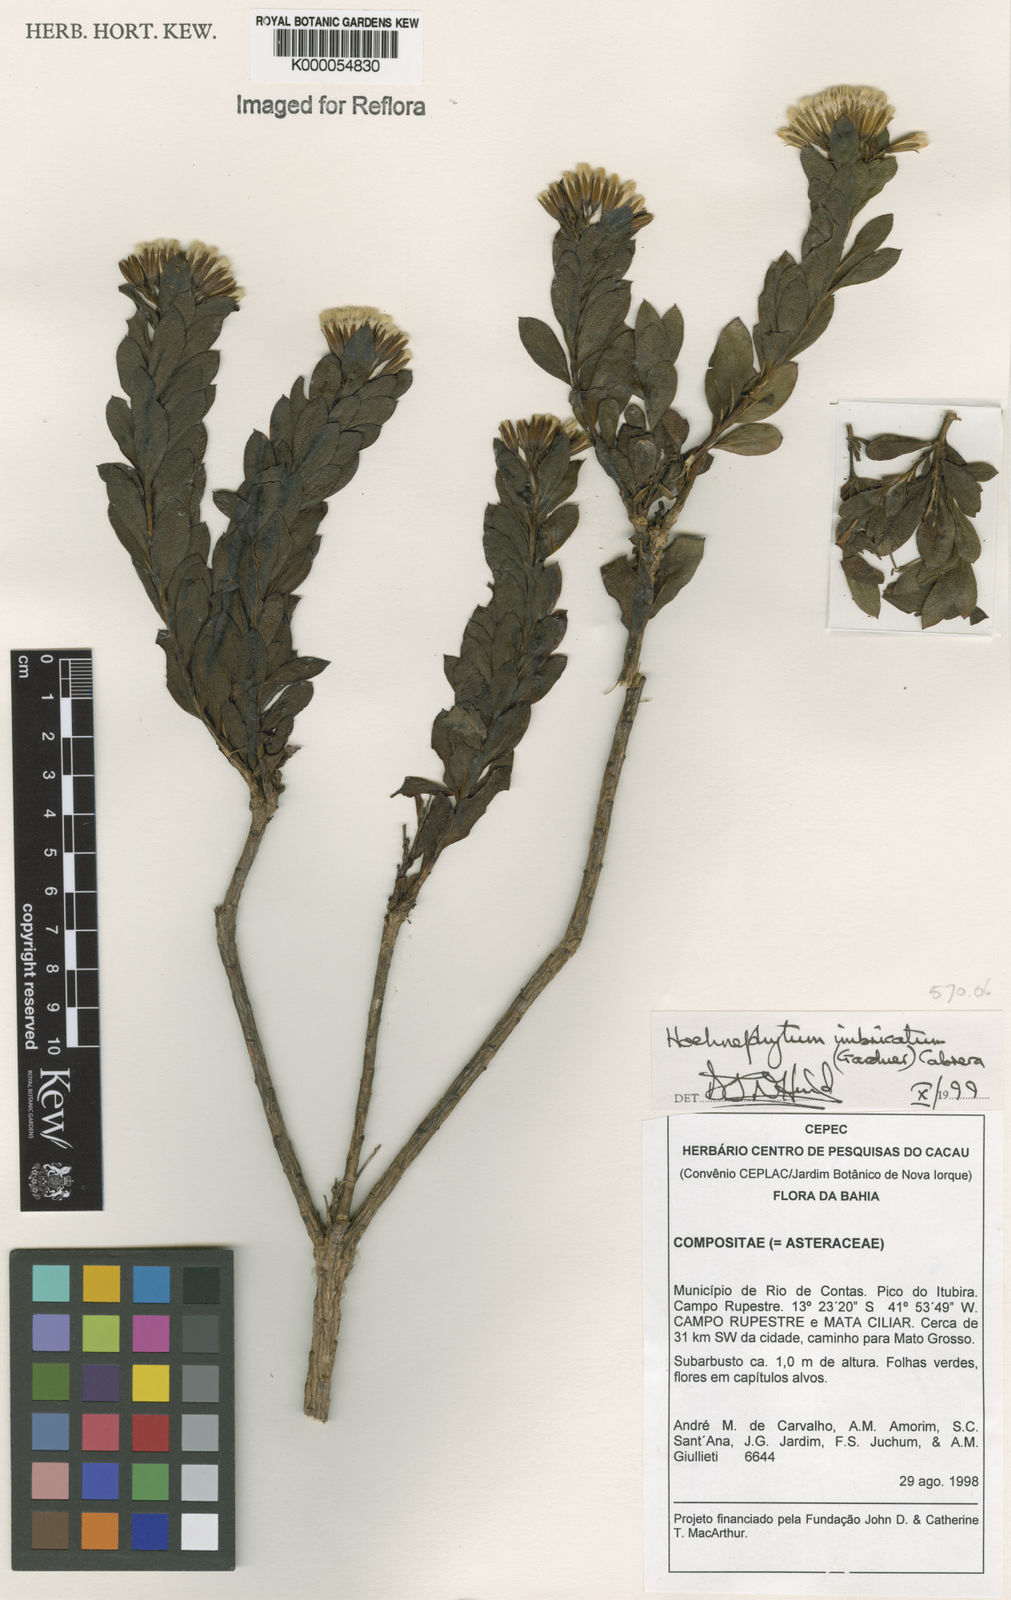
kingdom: Plantae
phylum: Tracheophyta
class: Magnoliopsida
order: Asterales
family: Asteraceae
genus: Hoehnephytum
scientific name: Hoehnephytum imbricatum
